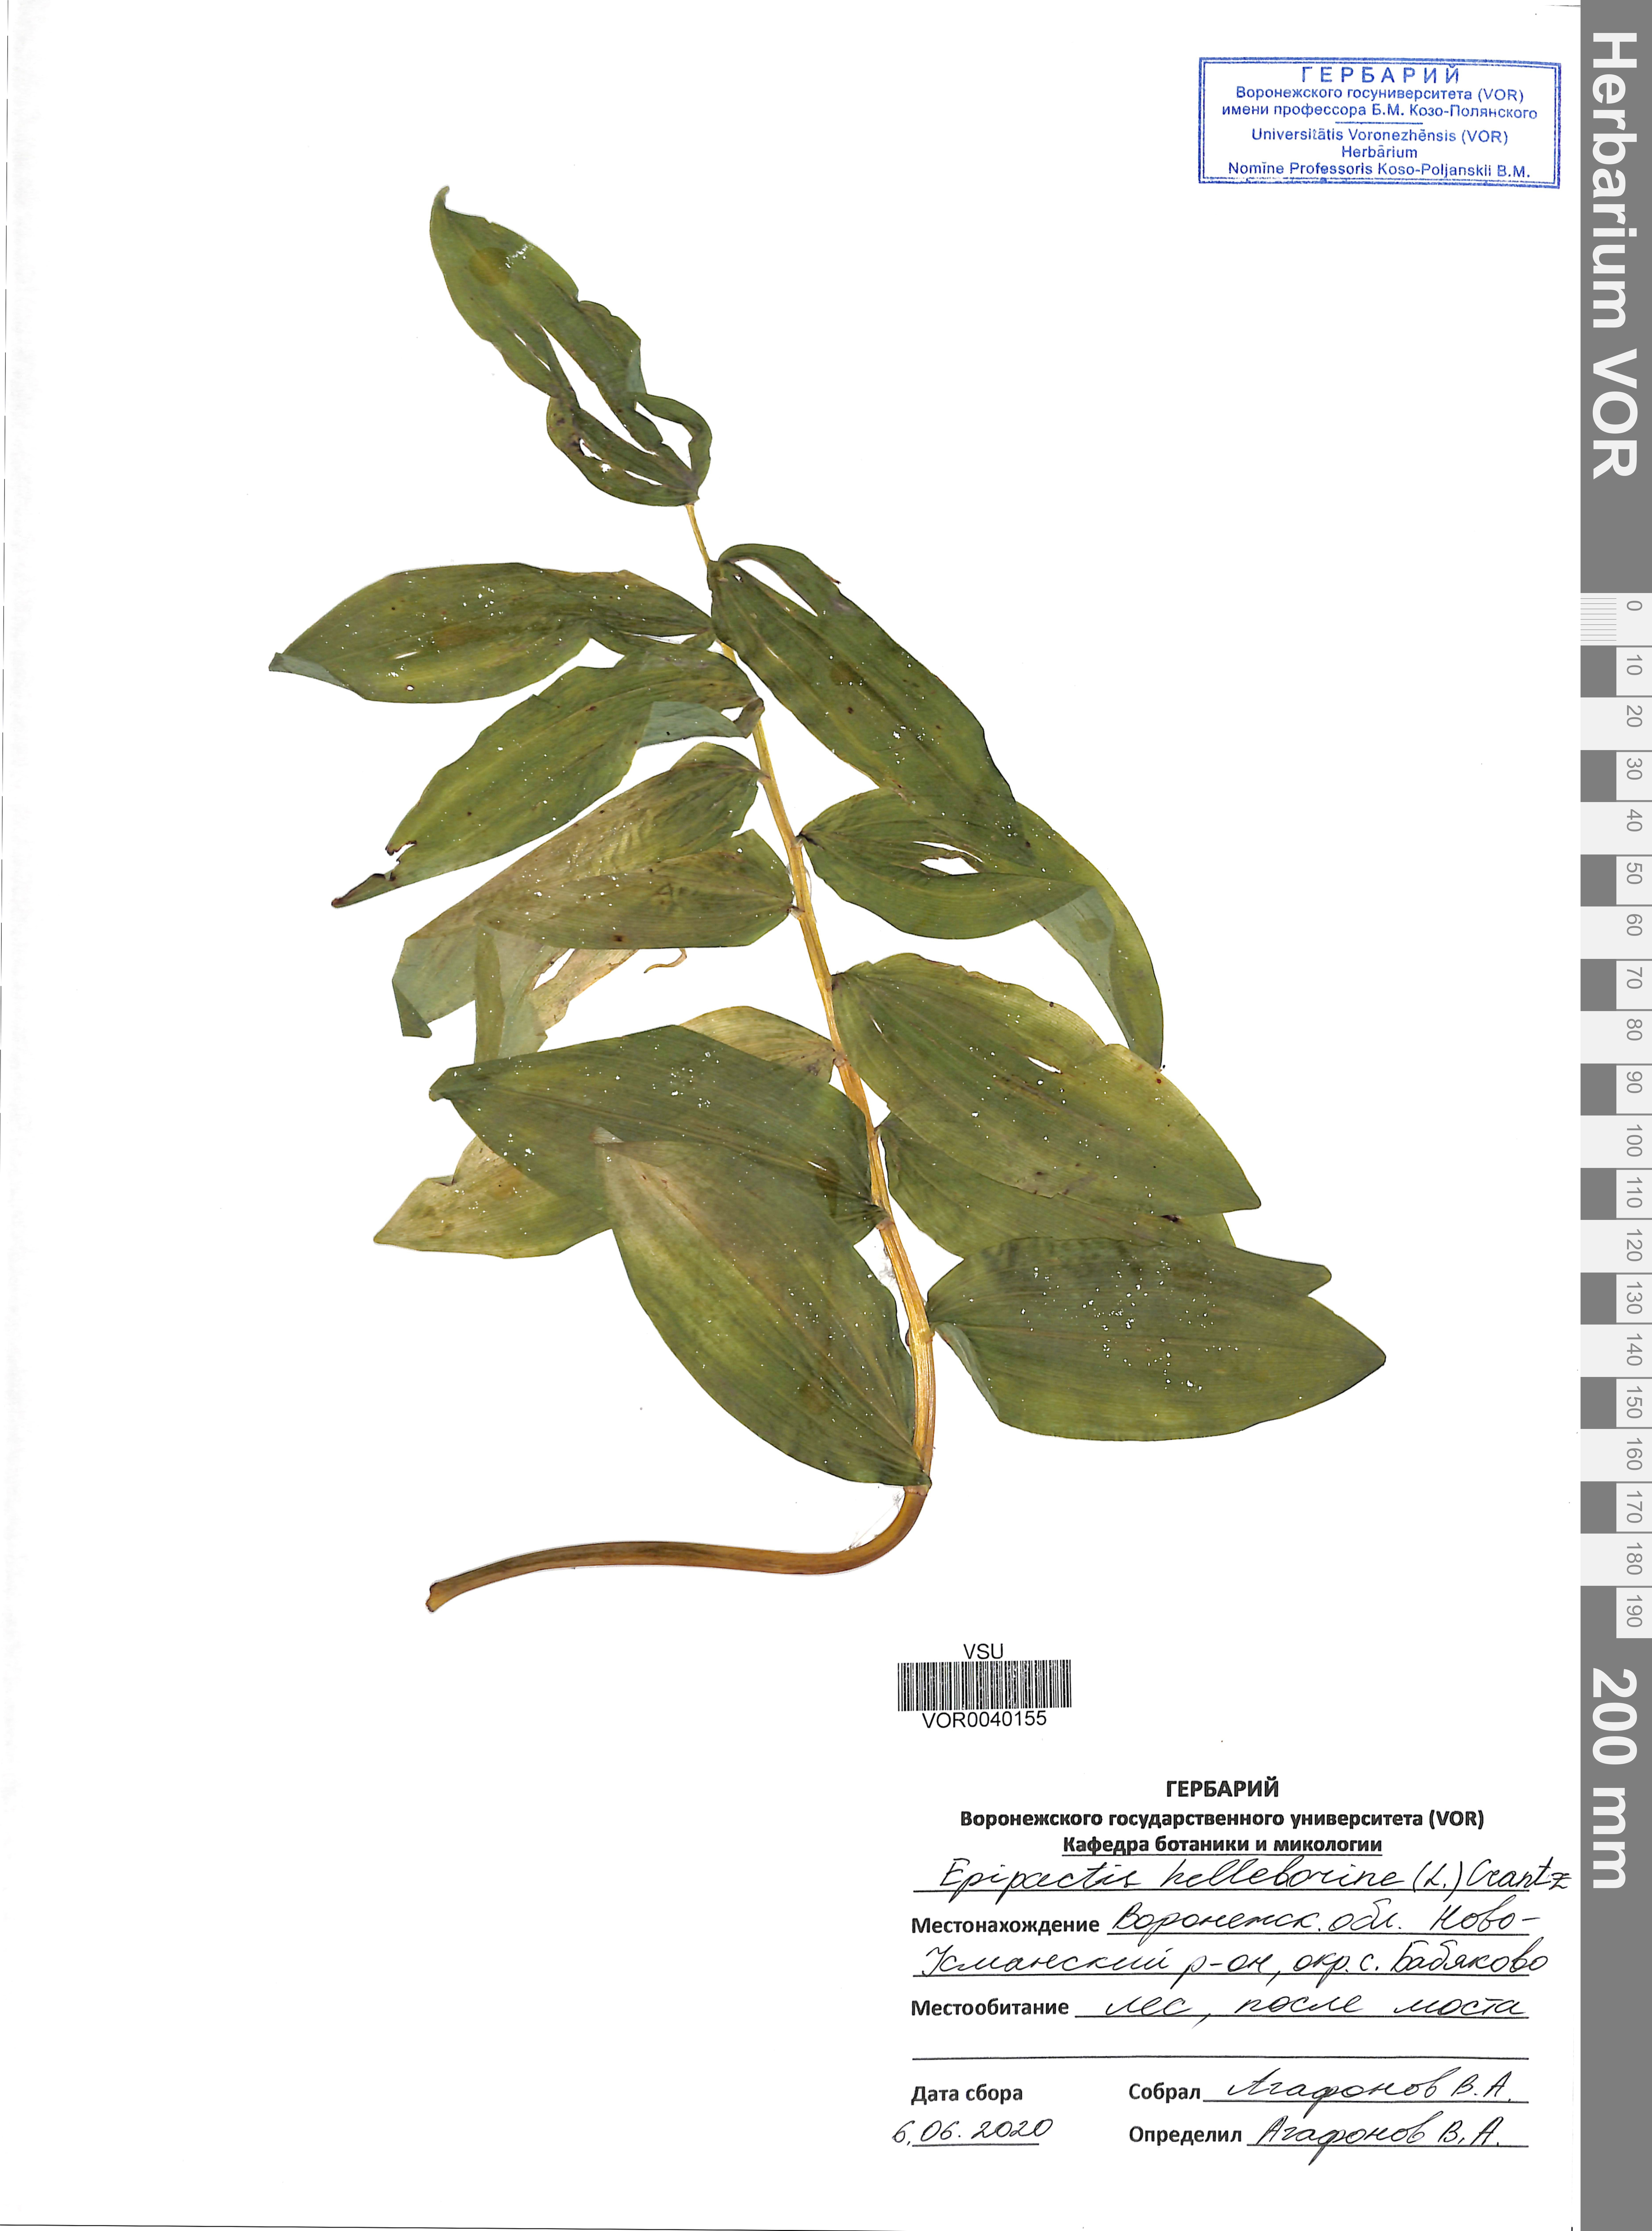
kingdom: Plantae
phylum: Tracheophyta
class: Liliopsida
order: Asparagales
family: Orchidaceae
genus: Epipactis
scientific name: Epipactis helleborine
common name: Broad-leaved helleborine
